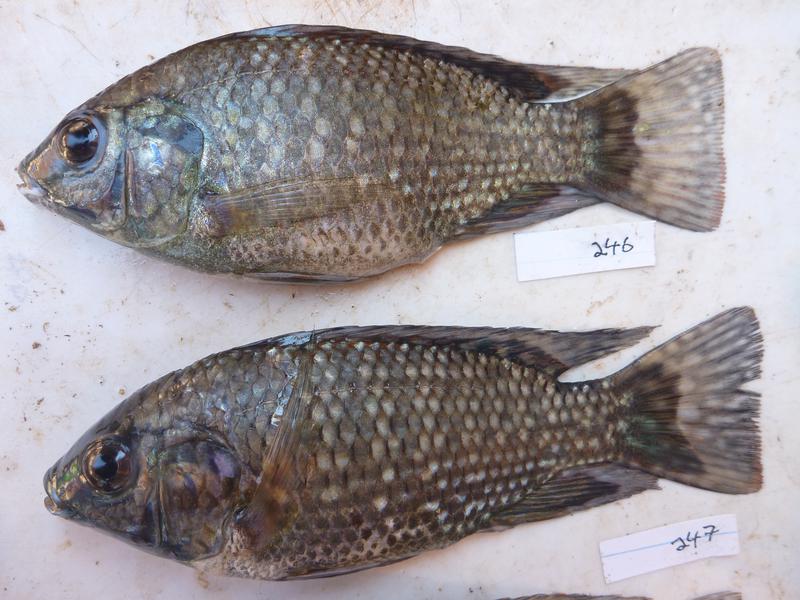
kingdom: Animalia
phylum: Chordata
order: Perciformes
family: Cichlidae
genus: Oreochromis
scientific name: Oreochromis leucostictus
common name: Blue spotted tilapia
